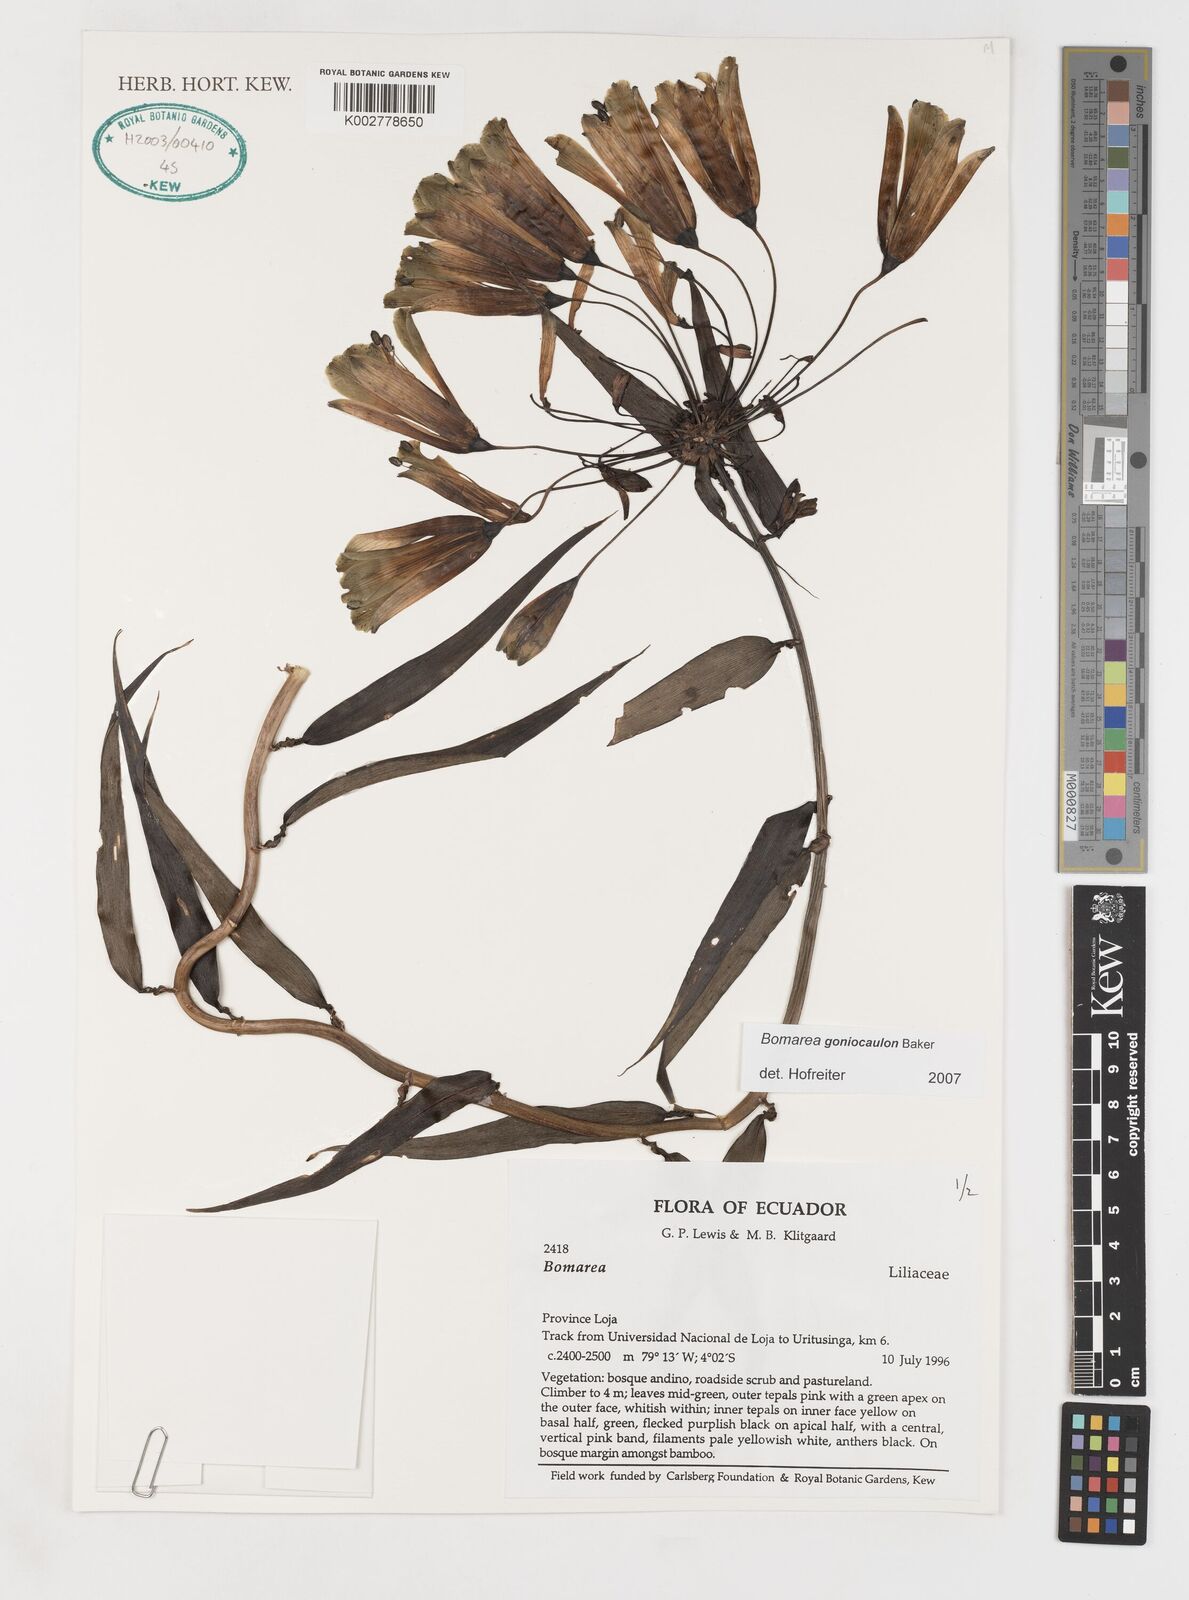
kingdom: Plantae
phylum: Tracheophyta
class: Liliopsida
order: Liliales
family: Alstroemeriaceae
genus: Bomarea
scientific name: Bomarea goniocaulon
